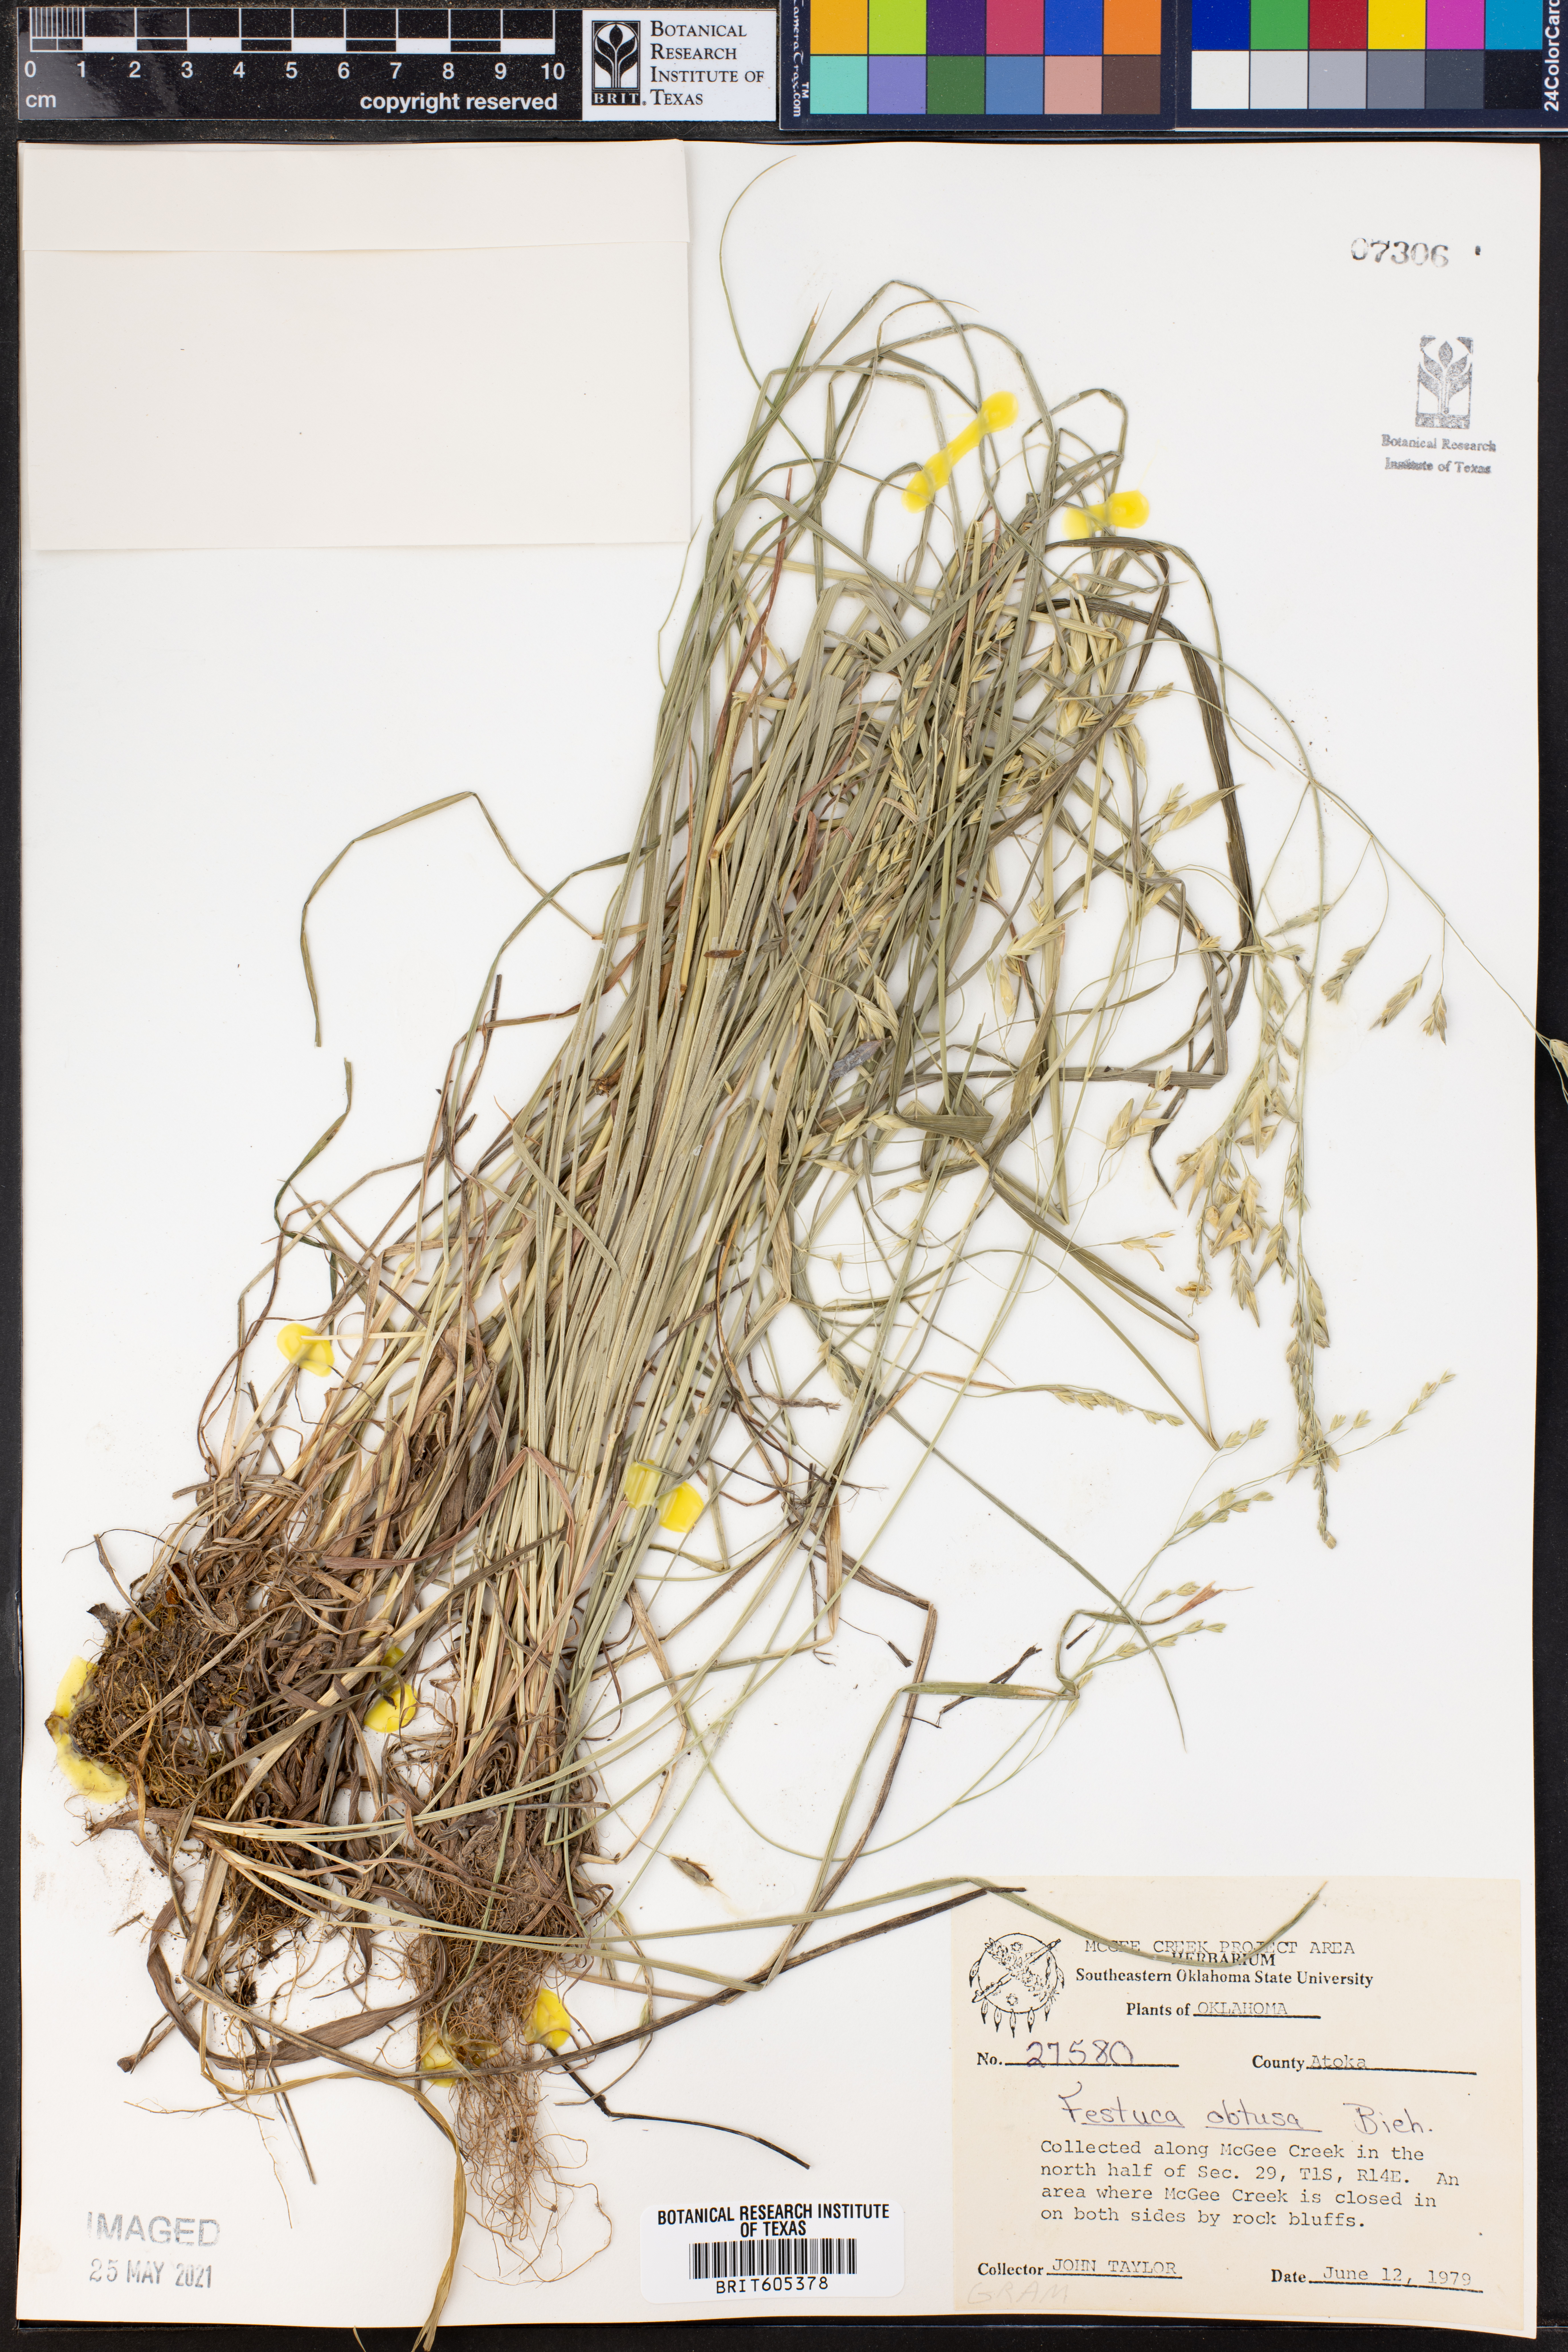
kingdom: Plantae
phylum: Tracheophyta
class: Liliopsida
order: Poales
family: Poaceae
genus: Festuca
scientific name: Festuca subverticillata
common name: Nodding fescue
